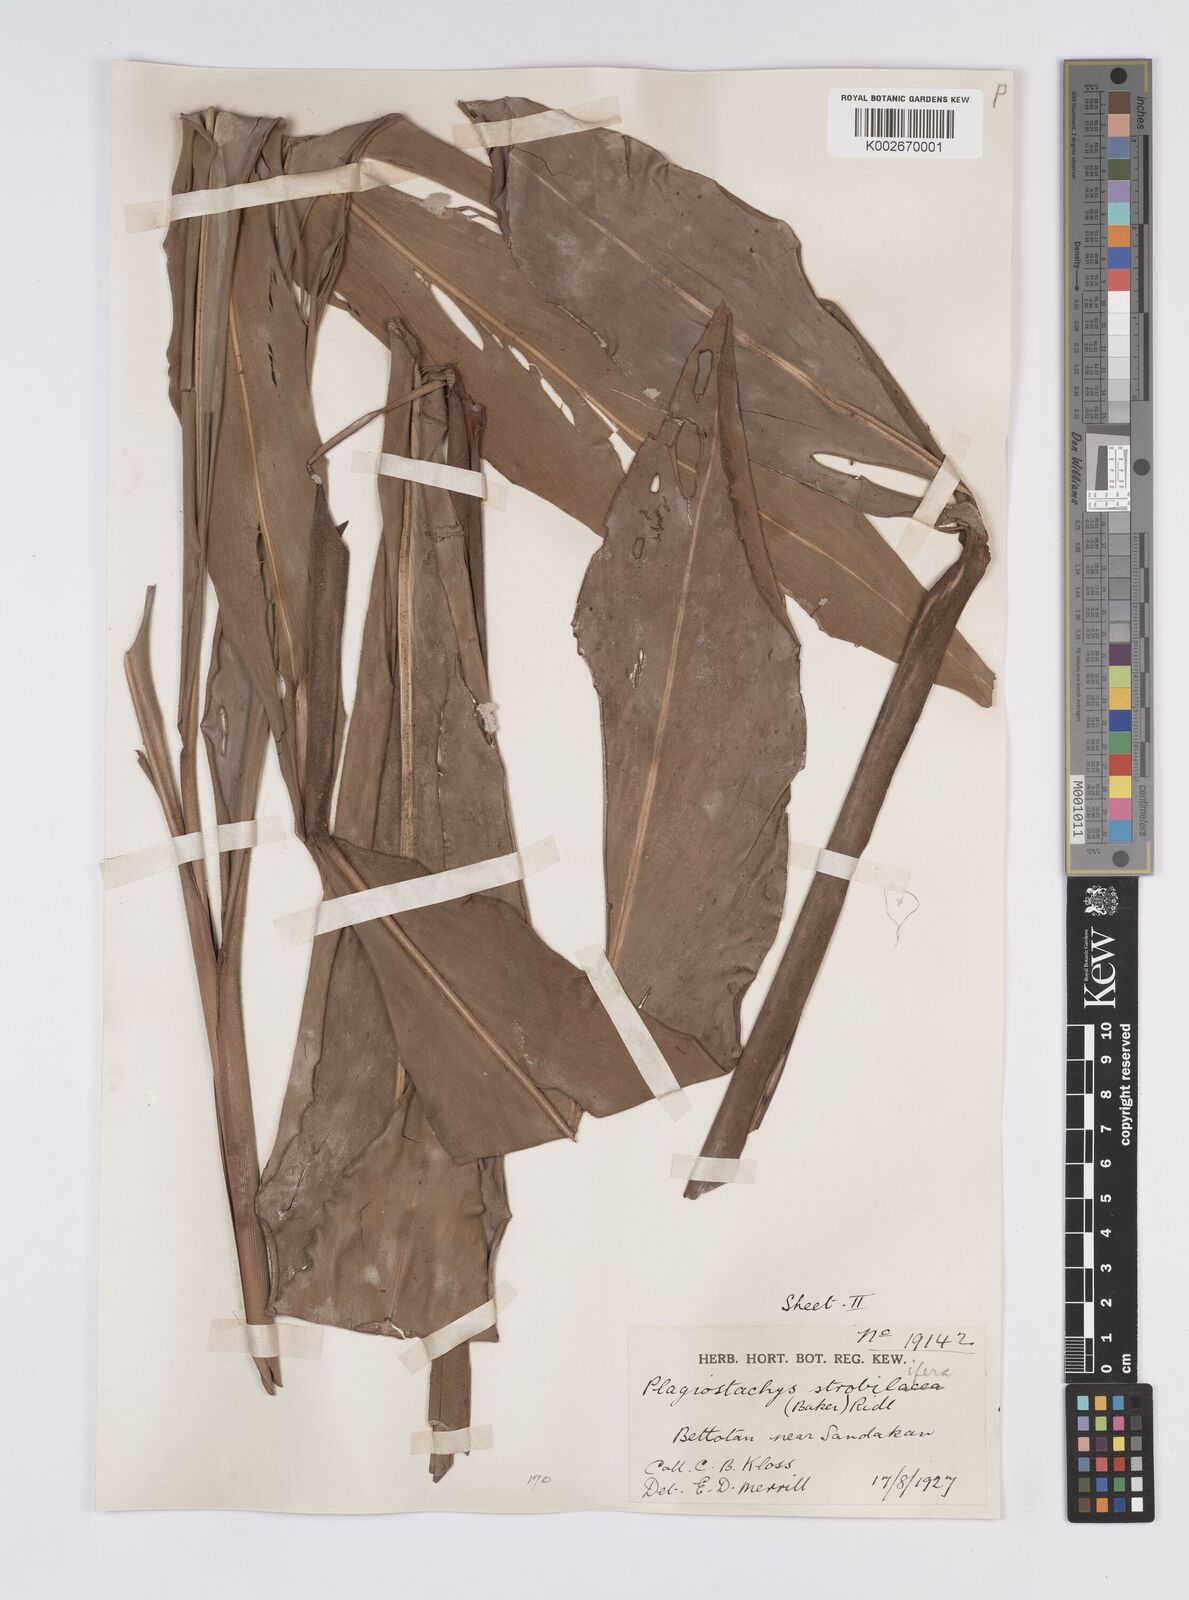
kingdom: Plantae
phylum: Tracheophyta
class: Liliopsida
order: Zingiberales
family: Zingiberaceae
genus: Plagiostachys
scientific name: Plagiostachys strobilifera
